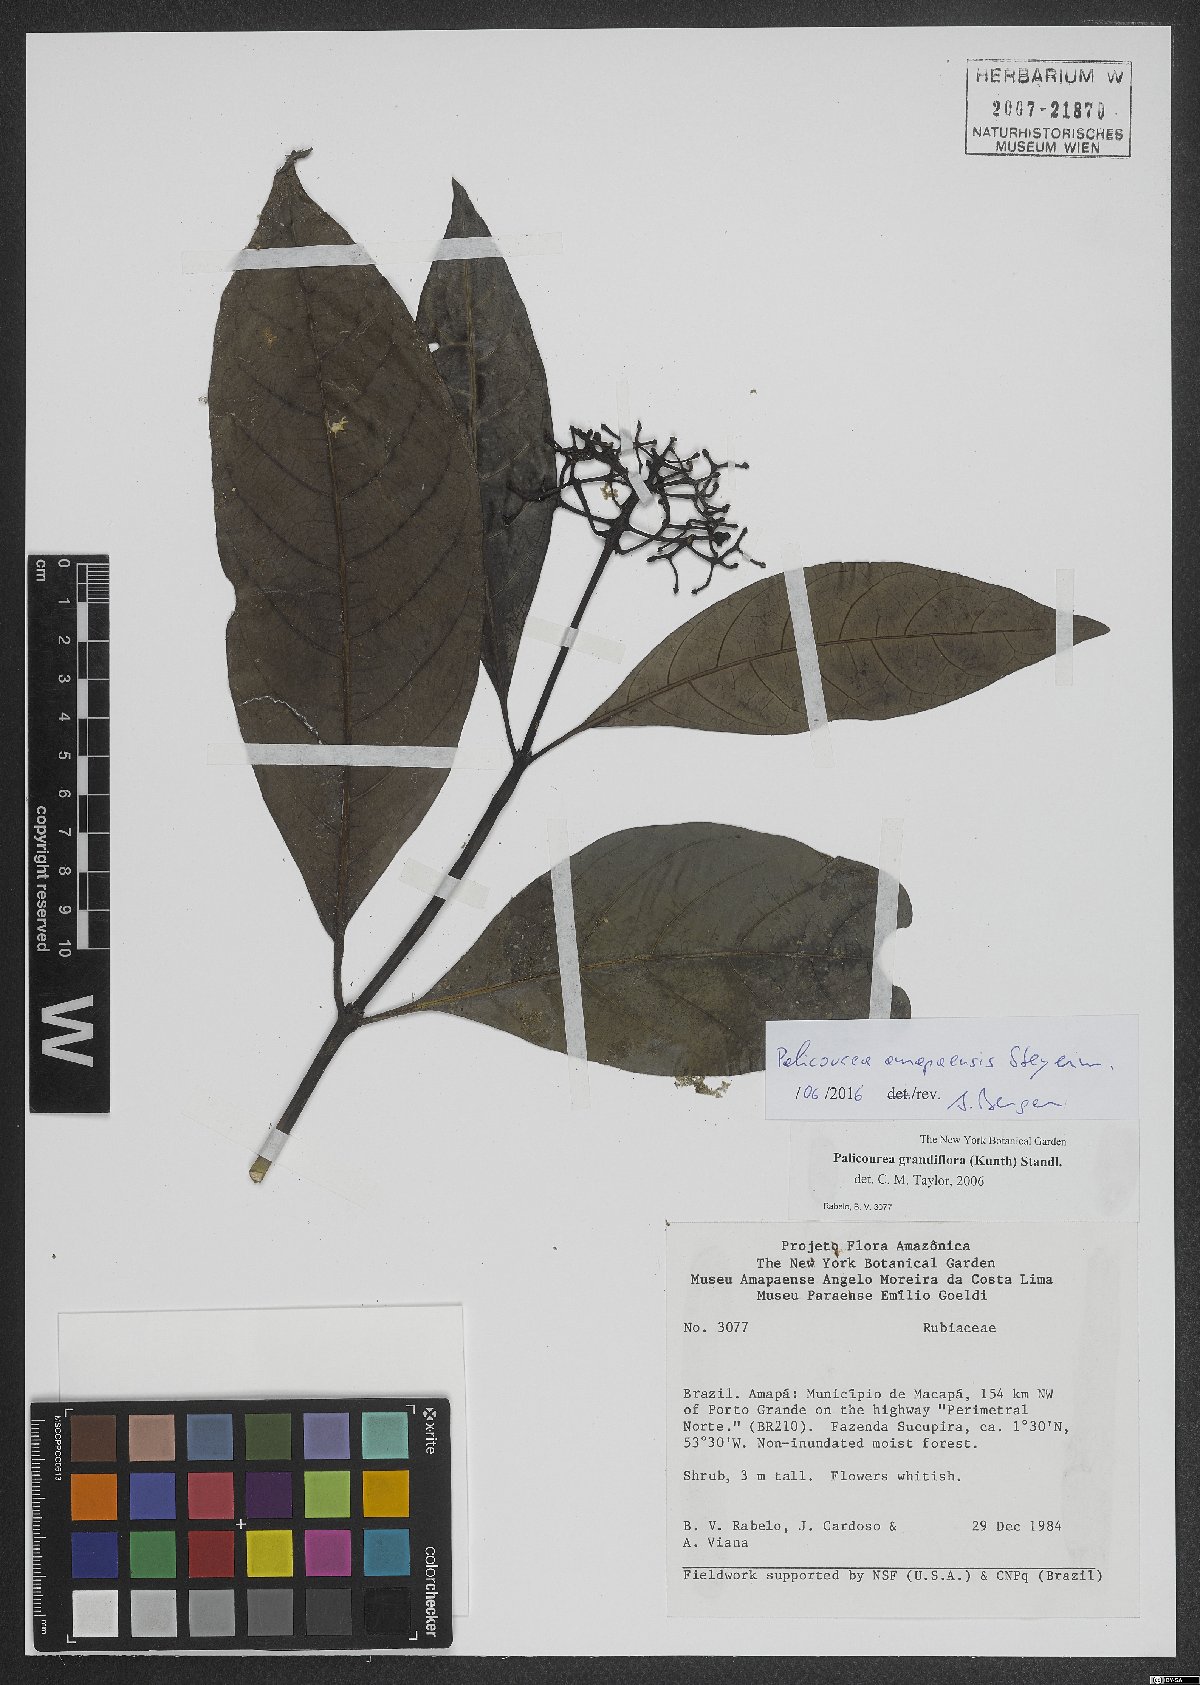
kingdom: Plantae
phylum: Tracheophyta
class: Magnoliopsida
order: Gentianales
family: Rubiaceae
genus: Palicourea
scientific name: Palicourea amapaensis
